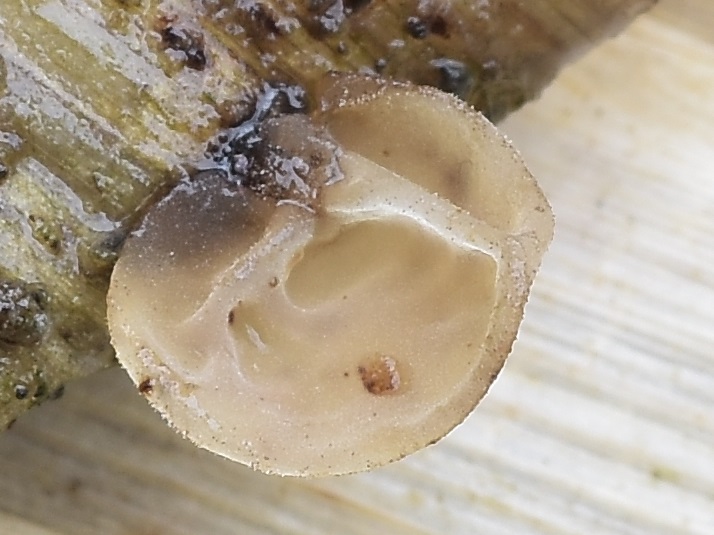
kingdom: Fungi
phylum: Basidiomycota
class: Agaricomycetes
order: Agaricales
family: Physalacriaceae
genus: Gloiocephala
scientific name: Gloiocephala menieri
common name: dunhammer-spatelhat
